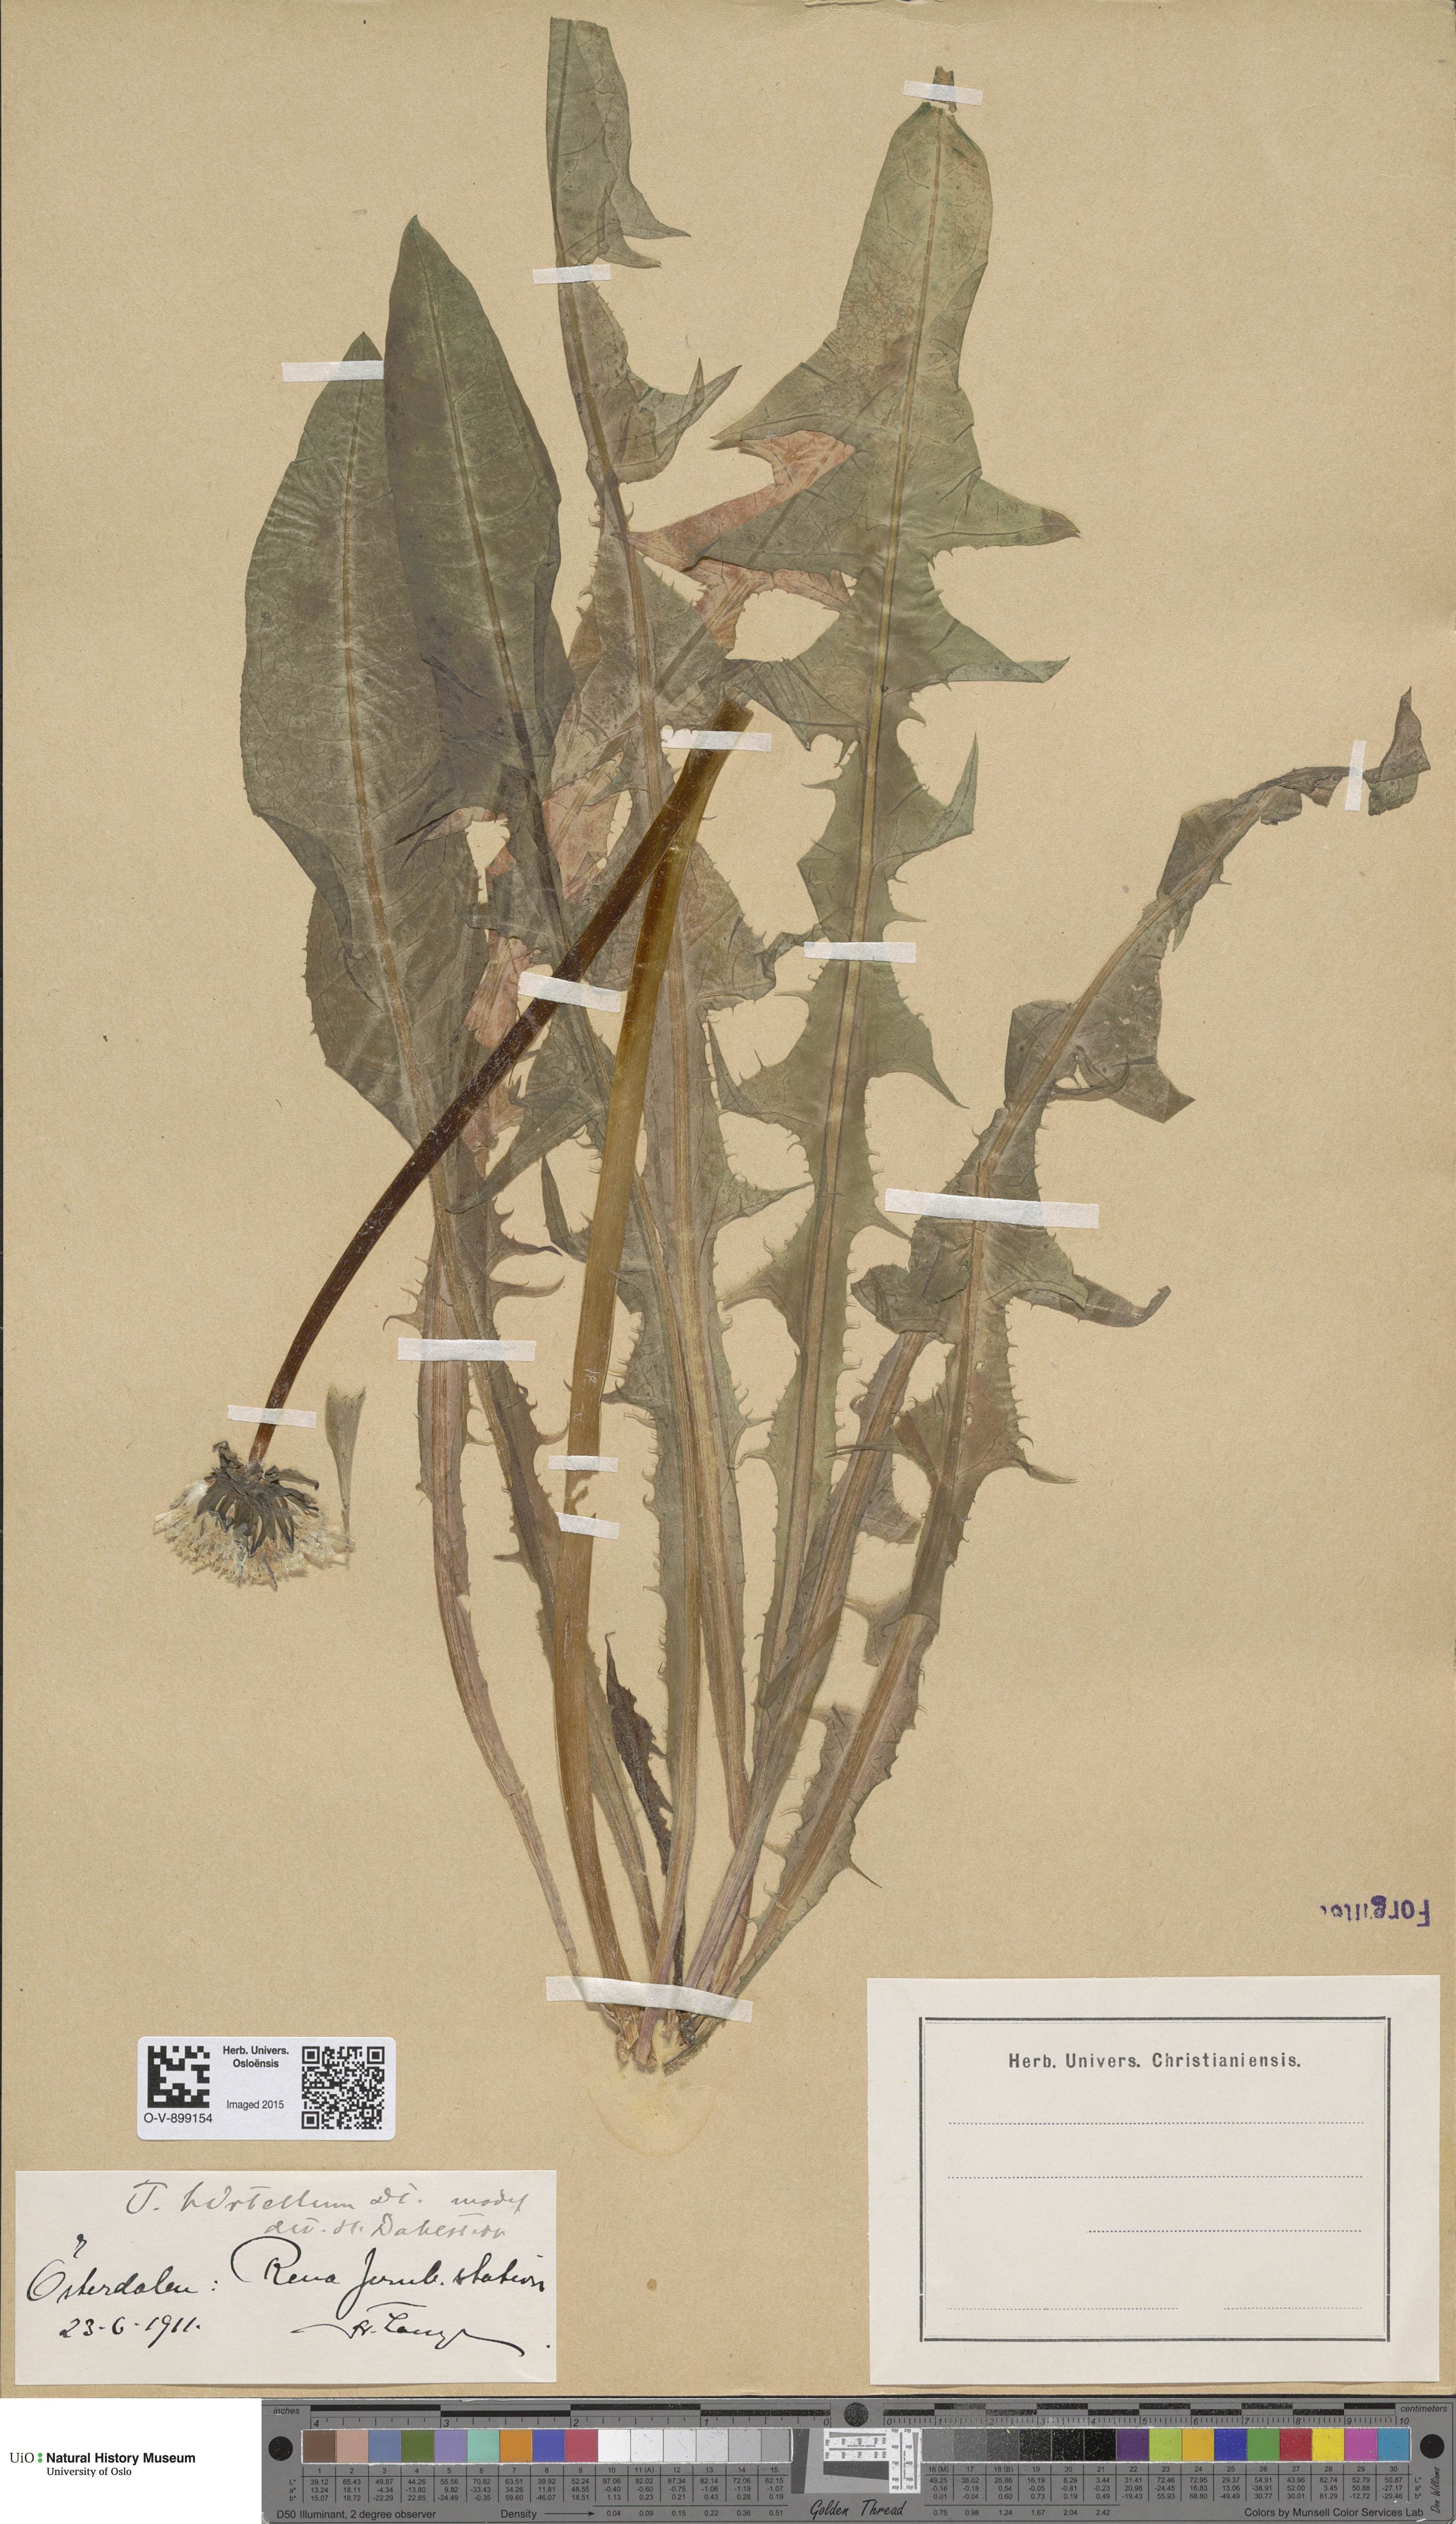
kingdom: Plantae
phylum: Tracheophyta
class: Magnoliopsida
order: Asterales
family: Asteraceae
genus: Taraxacum
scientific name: Taraxacum hirtellum
